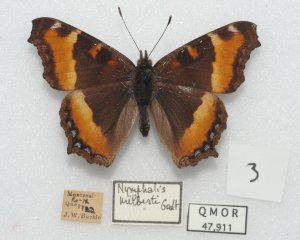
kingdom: Animalia
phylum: Arthropoda
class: Insecta
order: Lepidoptera
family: Nymphalidae
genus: Aglais
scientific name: Aglais milberti
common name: Milbert's Tortoiseshell
